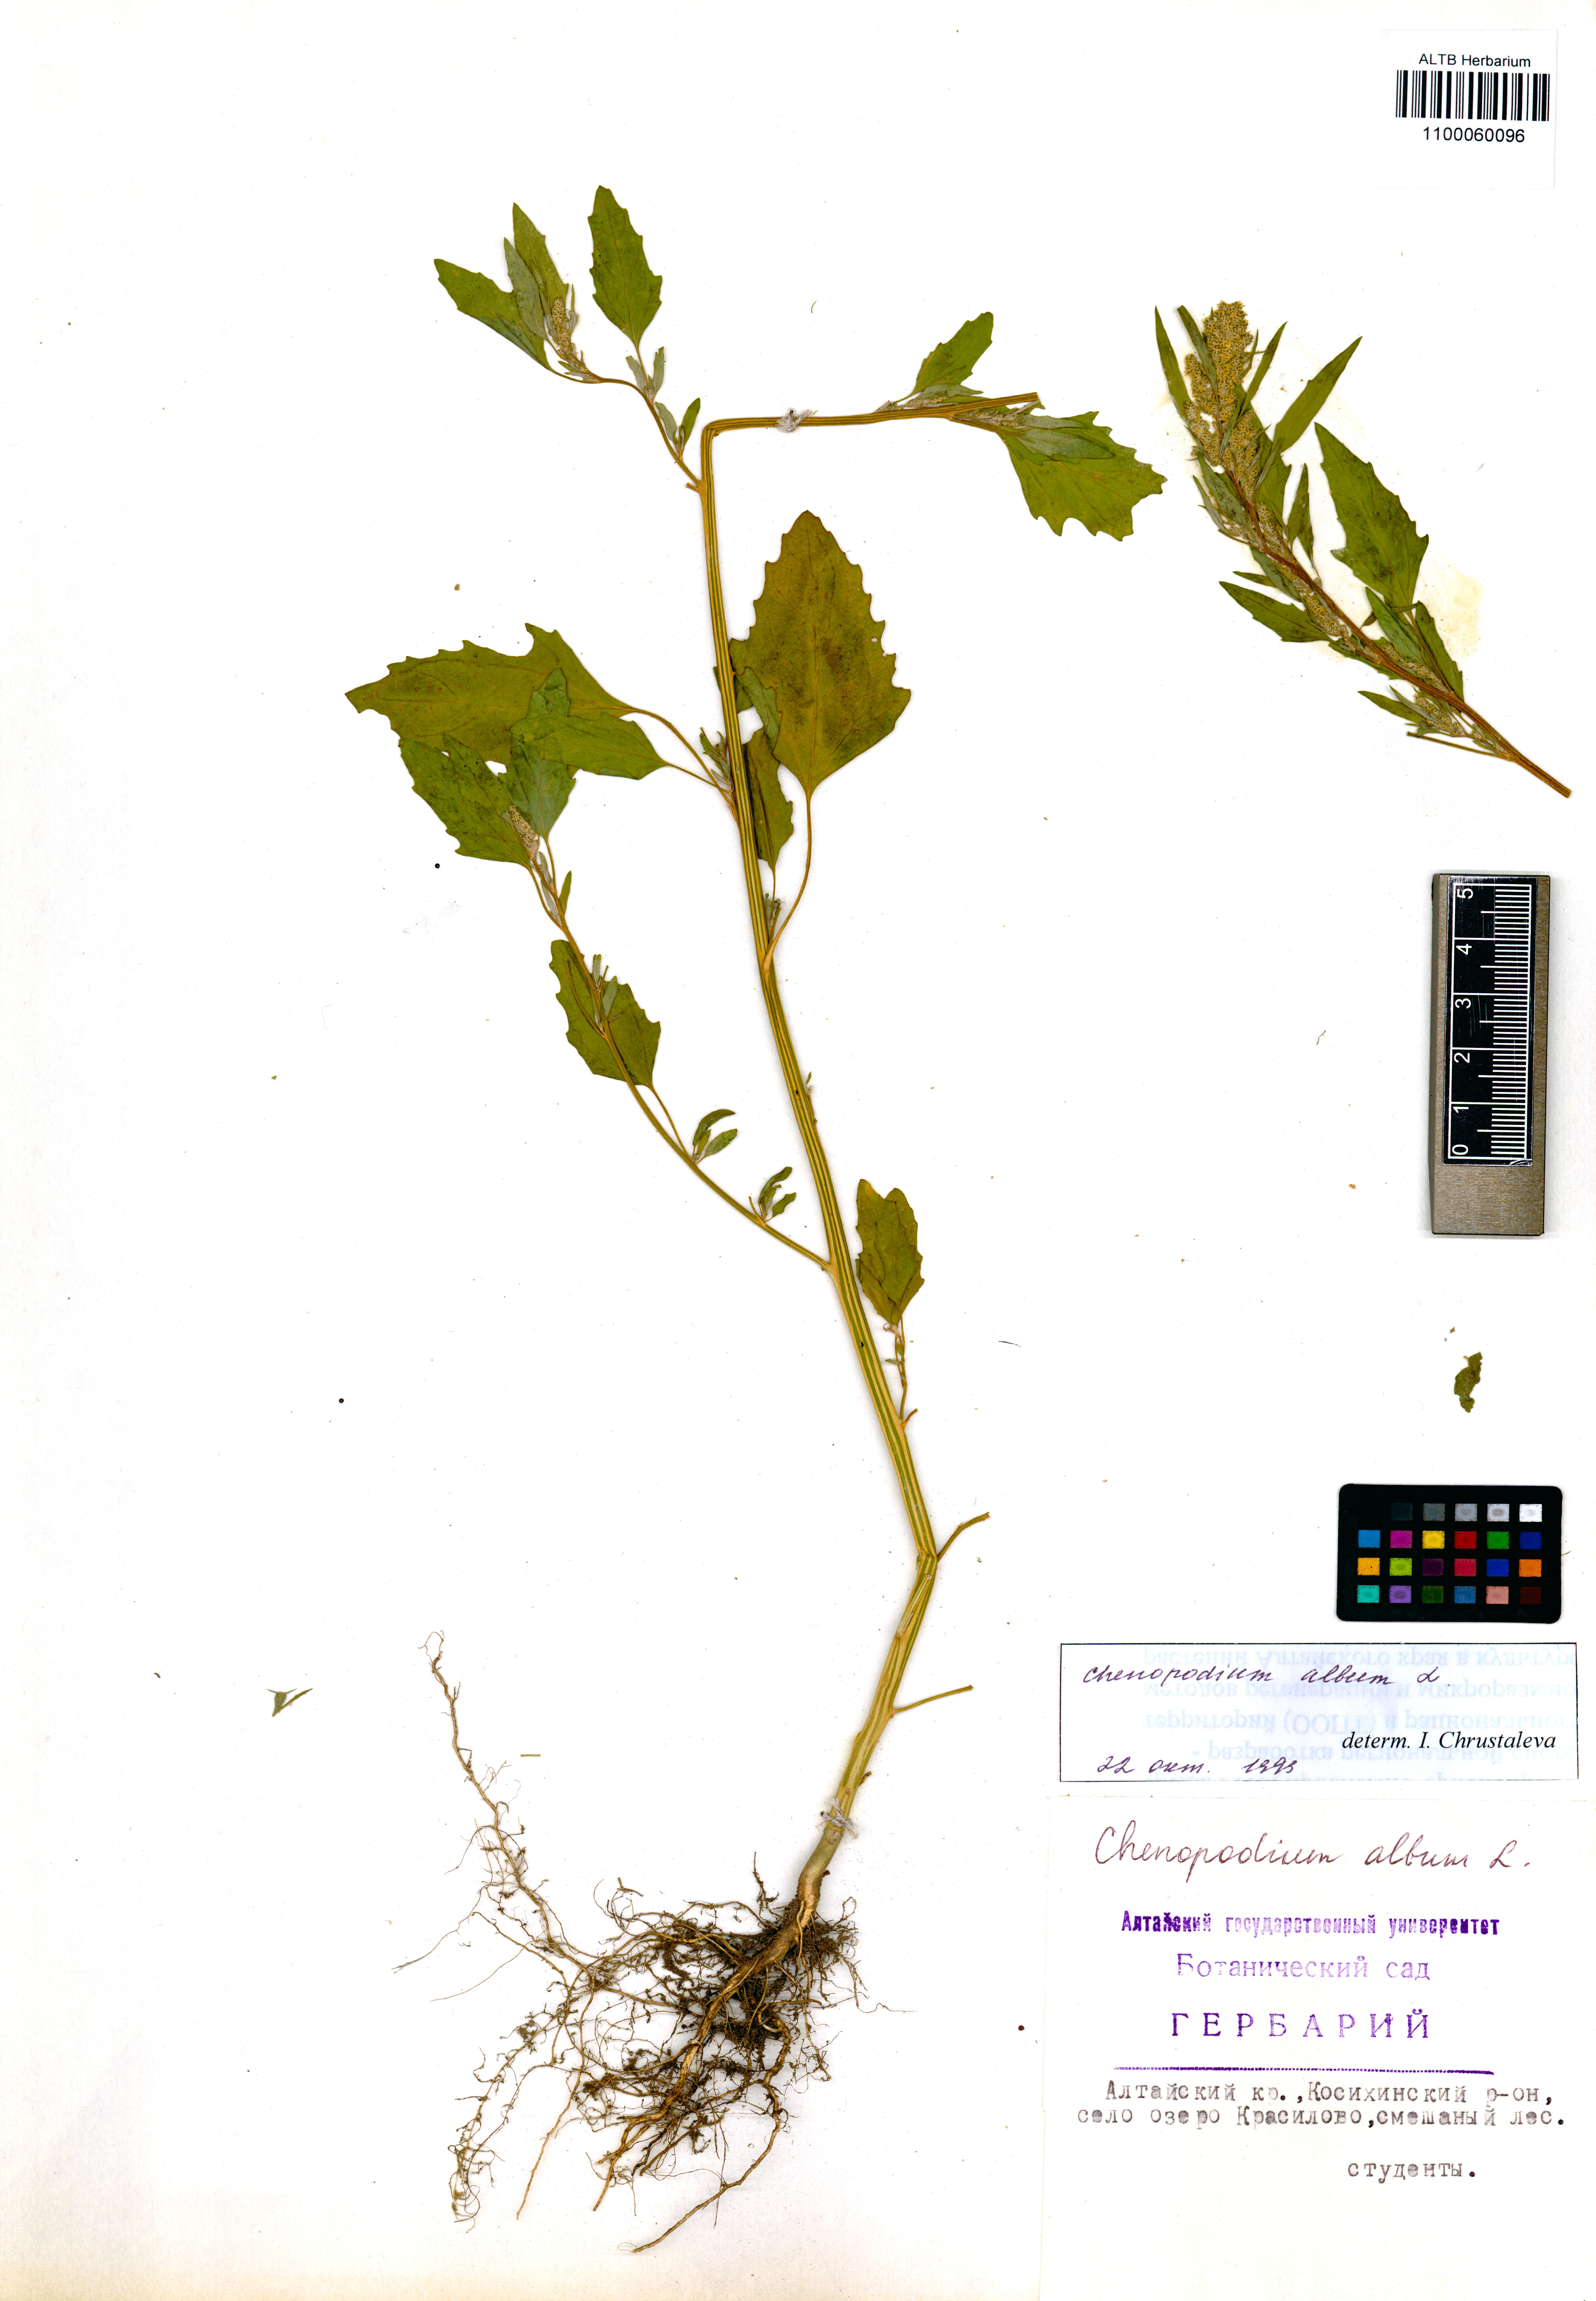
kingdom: Plantae
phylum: Tracheophyta
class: Magnoliopsida
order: Caryophyllales
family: Amaranthaceae
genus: Chenopodium
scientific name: Chenopodium album
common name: Fat-hen
